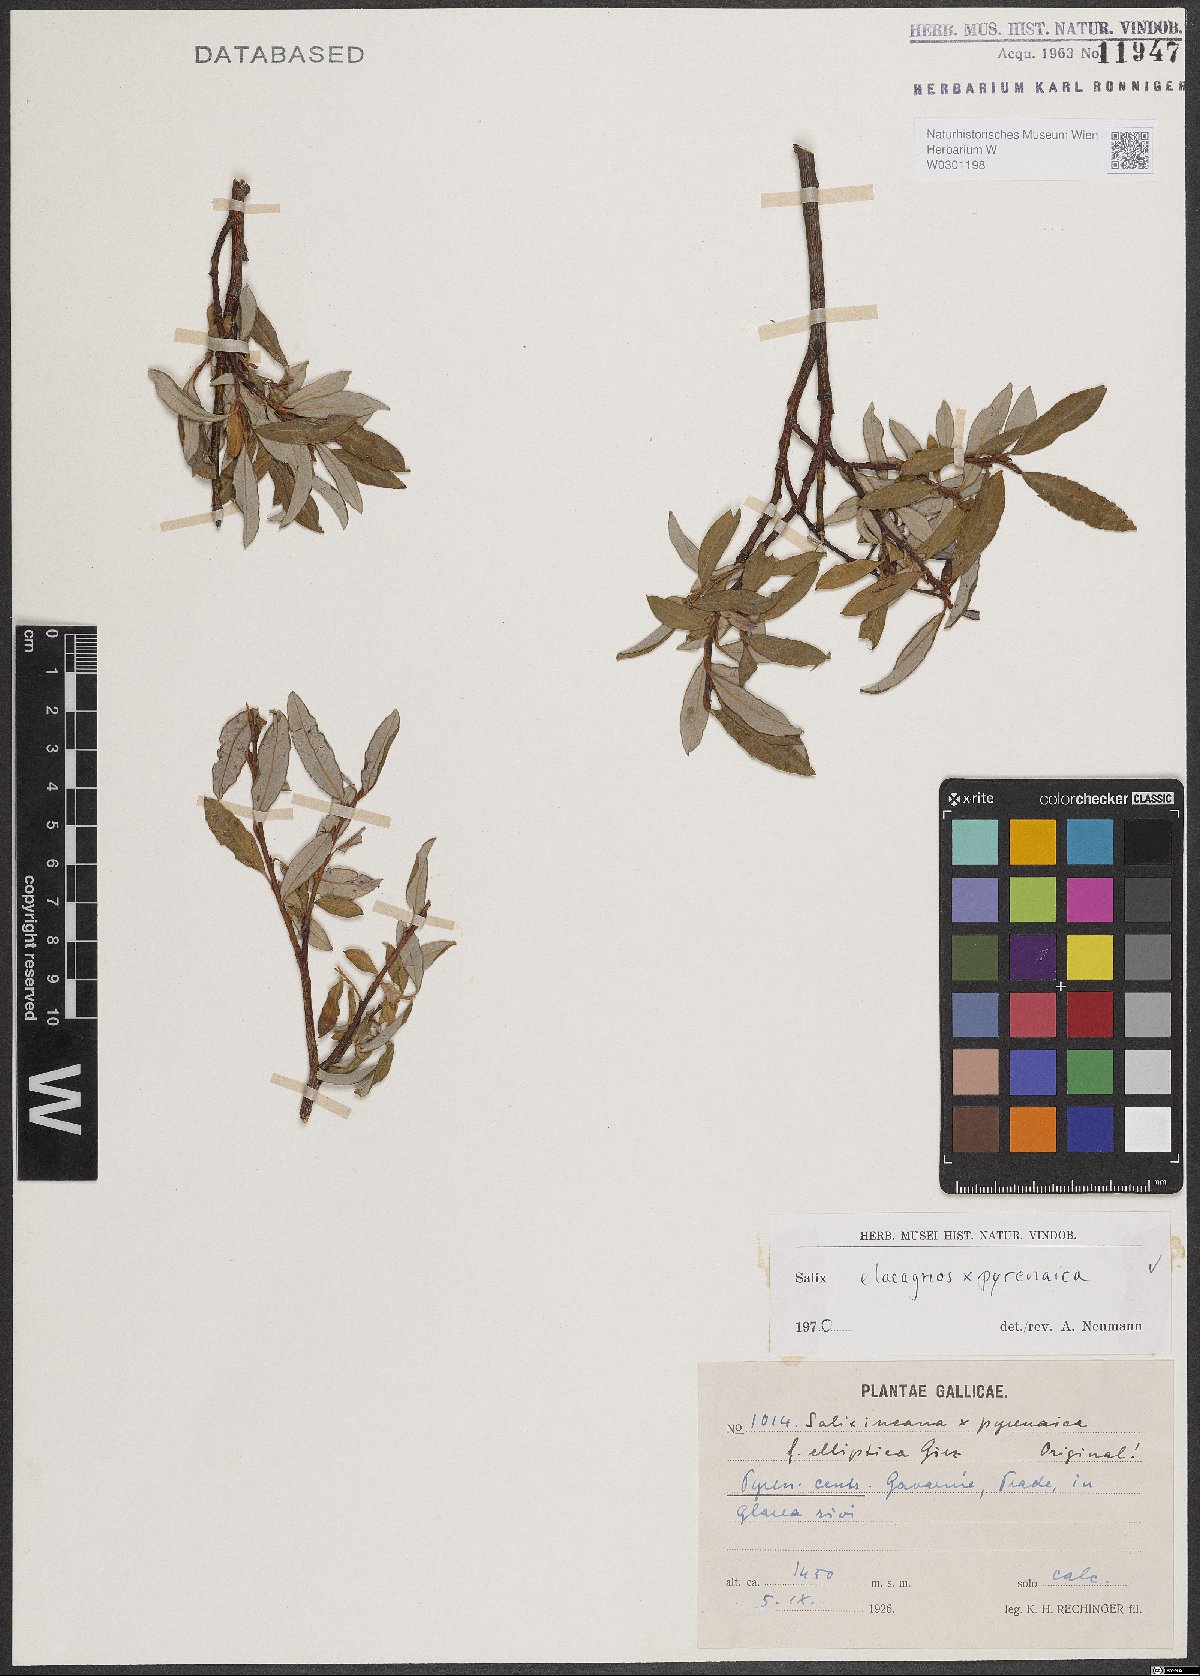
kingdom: Plantae
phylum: Tracheophyta
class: Magnoliopsida
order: Malpighiales
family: Salicaceae
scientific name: Salicaceae
